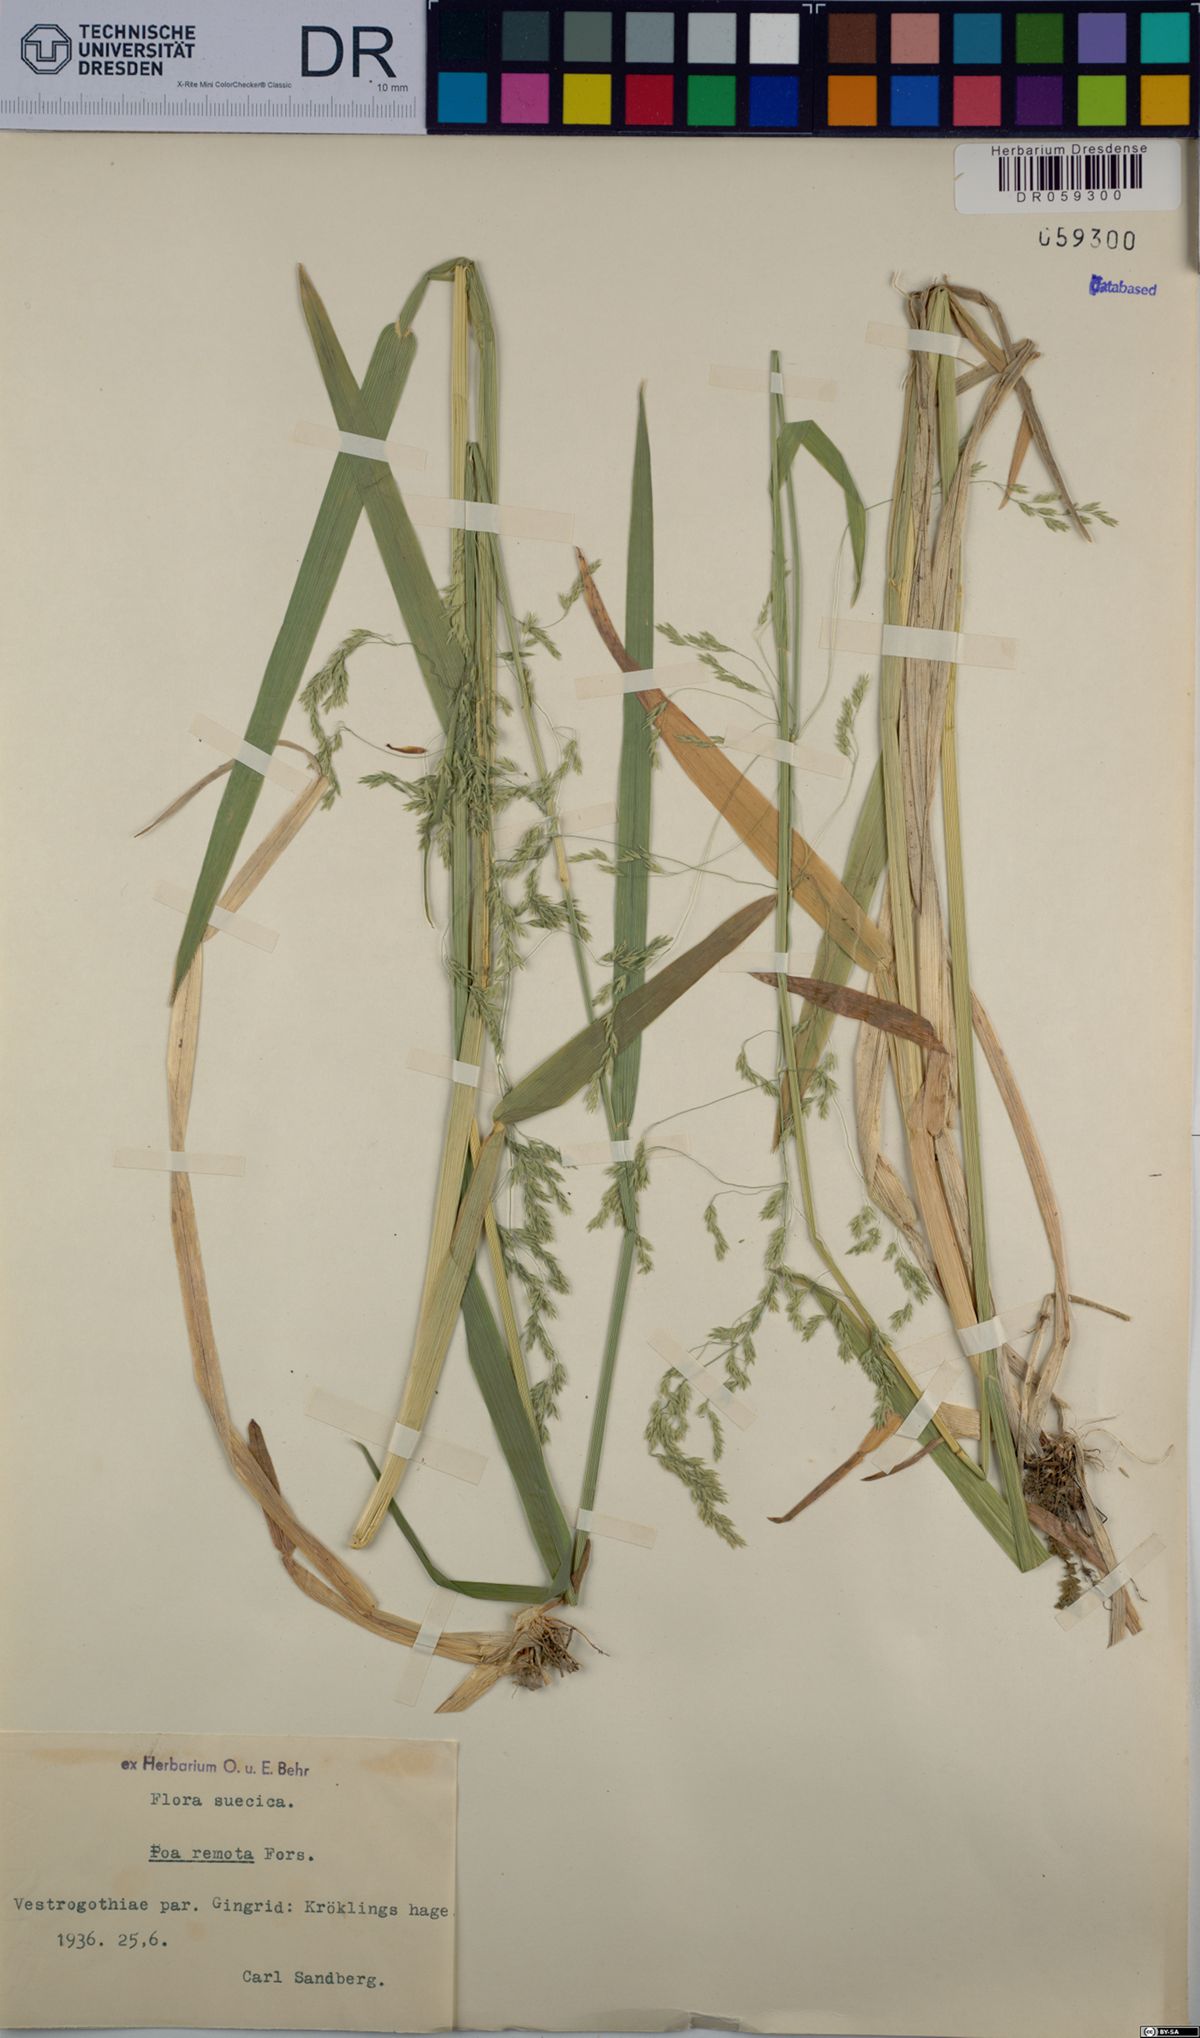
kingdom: Plantae
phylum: Tracheophyta
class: Liliopsida
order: Poales
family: Poaceae
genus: Poa
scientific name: Poa remota
